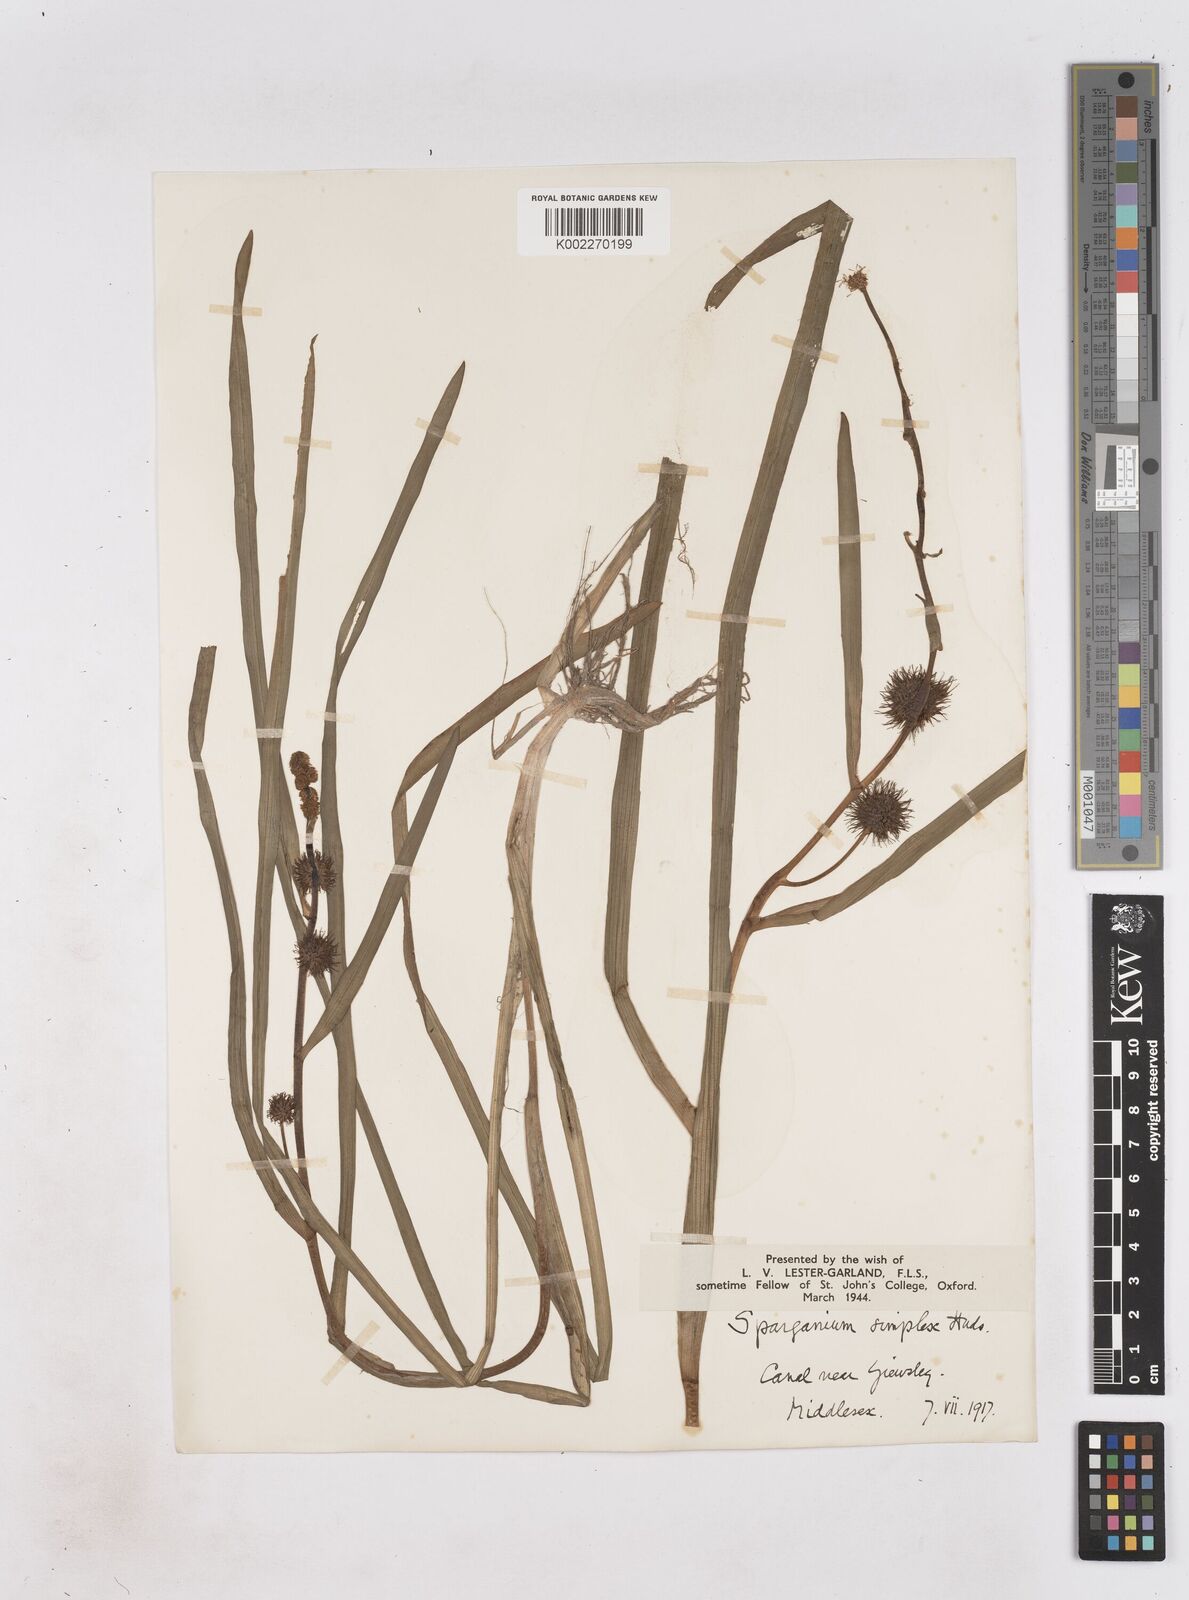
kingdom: Plantae
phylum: Tracheophyta
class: Liliopsida
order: Poales
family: Typhaceae
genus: Sparganium
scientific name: Sparganium emersum
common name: Unbranched bur-reed
